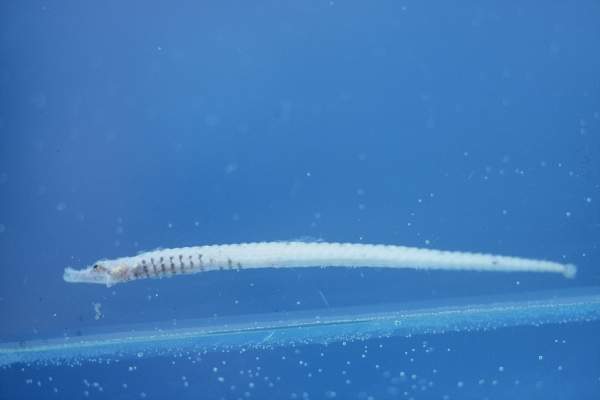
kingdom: Animalia
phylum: Chordata
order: Syngnathiformes
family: Syngnathidae
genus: Cosmocampus
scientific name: Cosmocampus banneri
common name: Banner's pipefish
